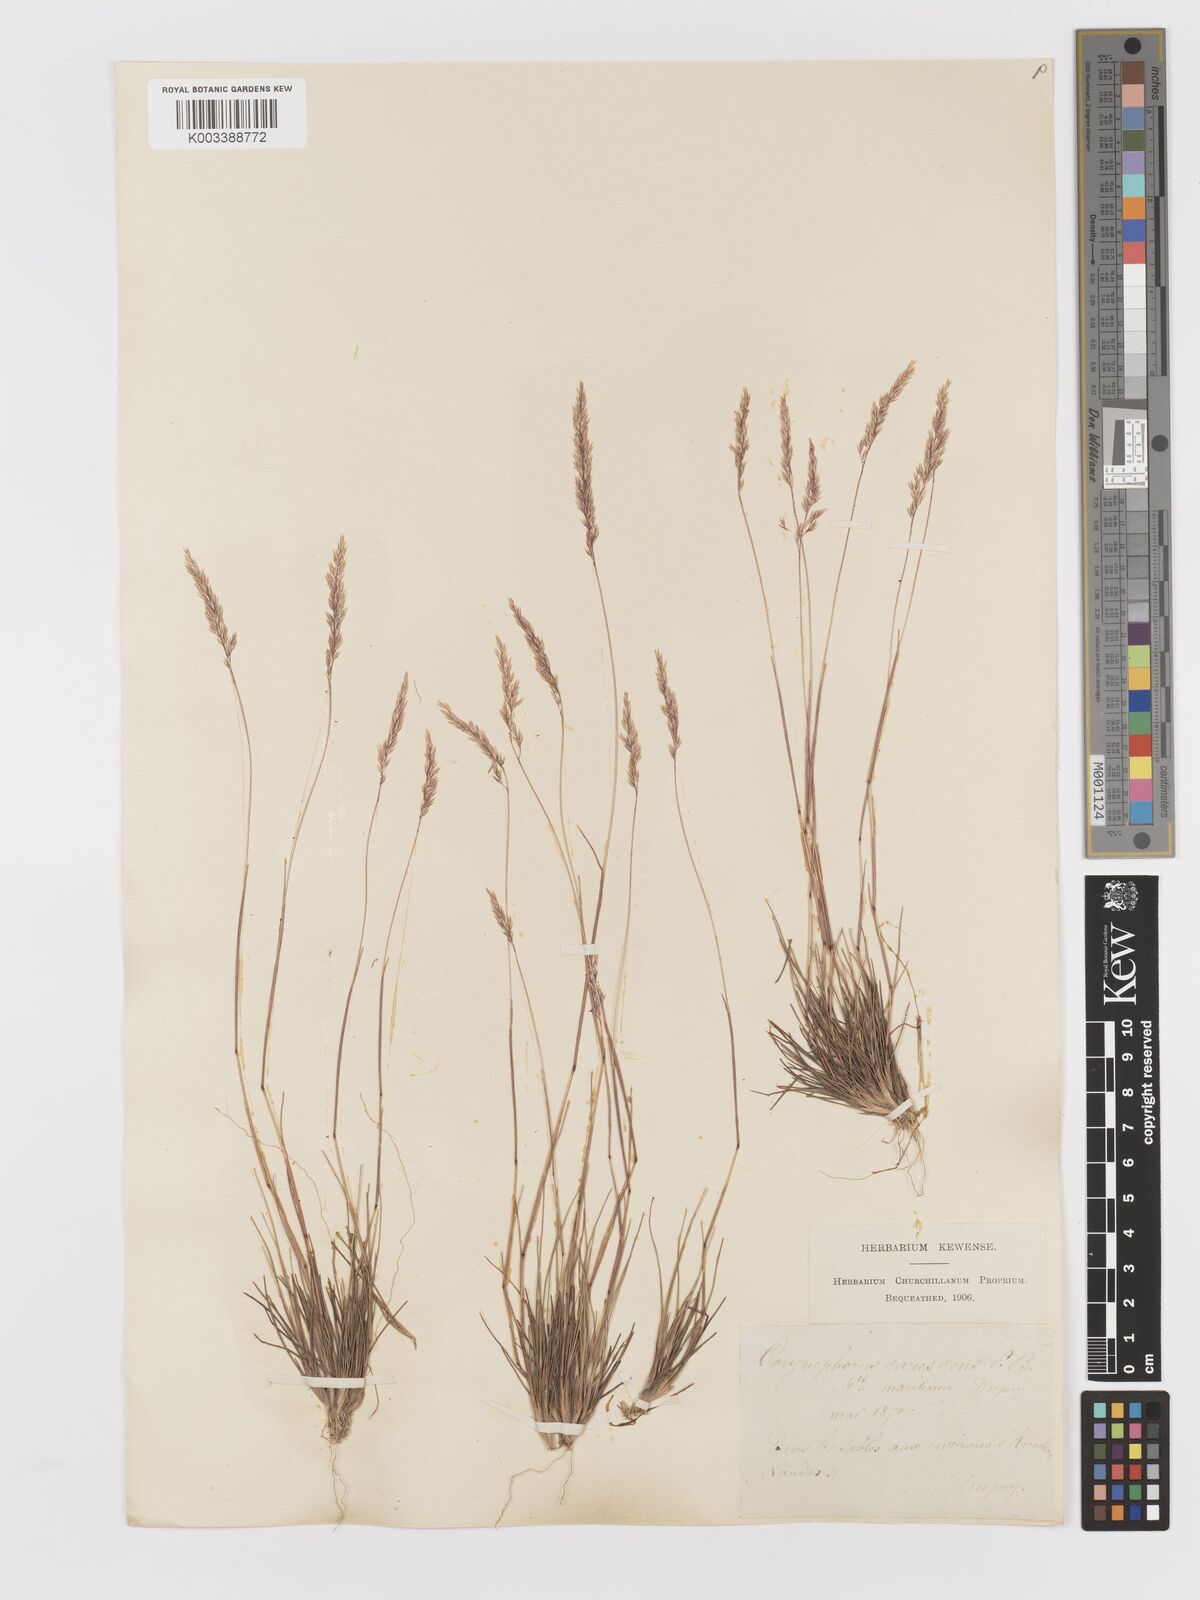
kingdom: Plantae
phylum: Tracheophyta
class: Liliopsida
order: Poales
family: Poaceae
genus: Corynephorus
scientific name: Corynephorus canescens
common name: Grey hair-grass
